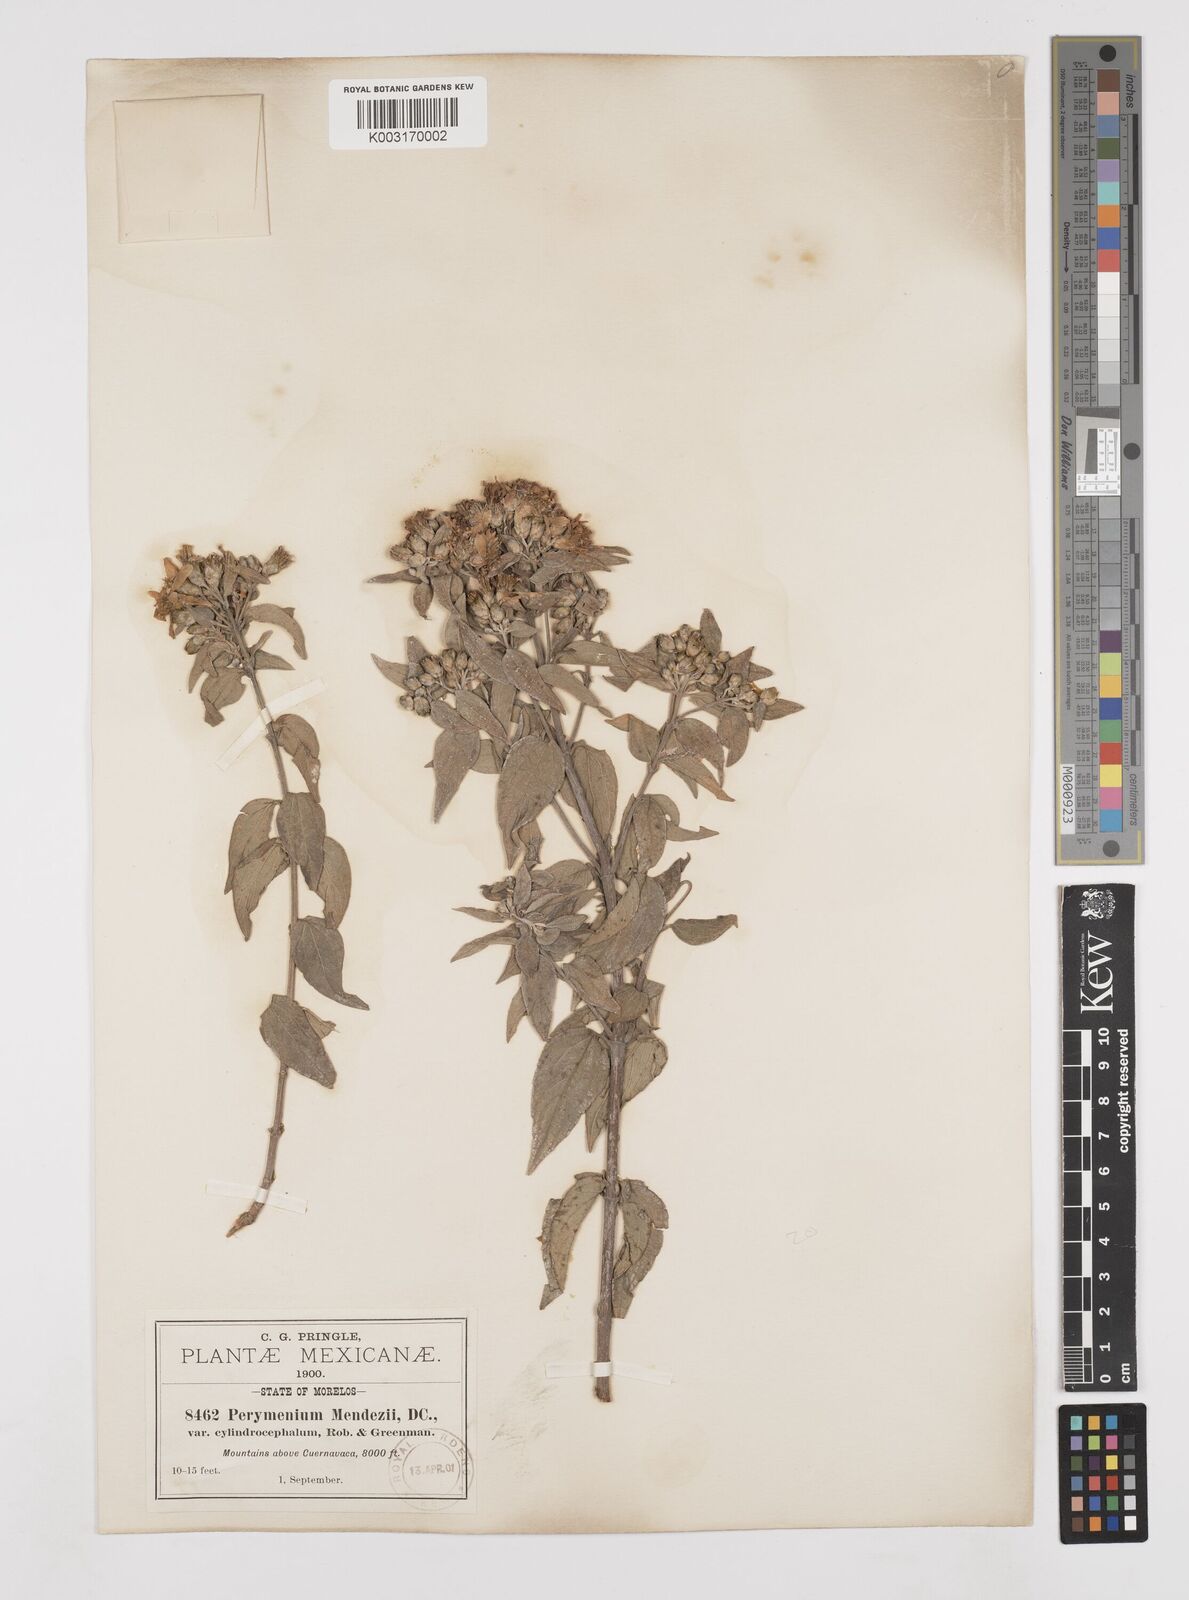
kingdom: Plantae
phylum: Tracheophyta
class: Magnoliopsida
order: Asterales
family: Asteraceae
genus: Perymenium
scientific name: Perymenium berlandieri
